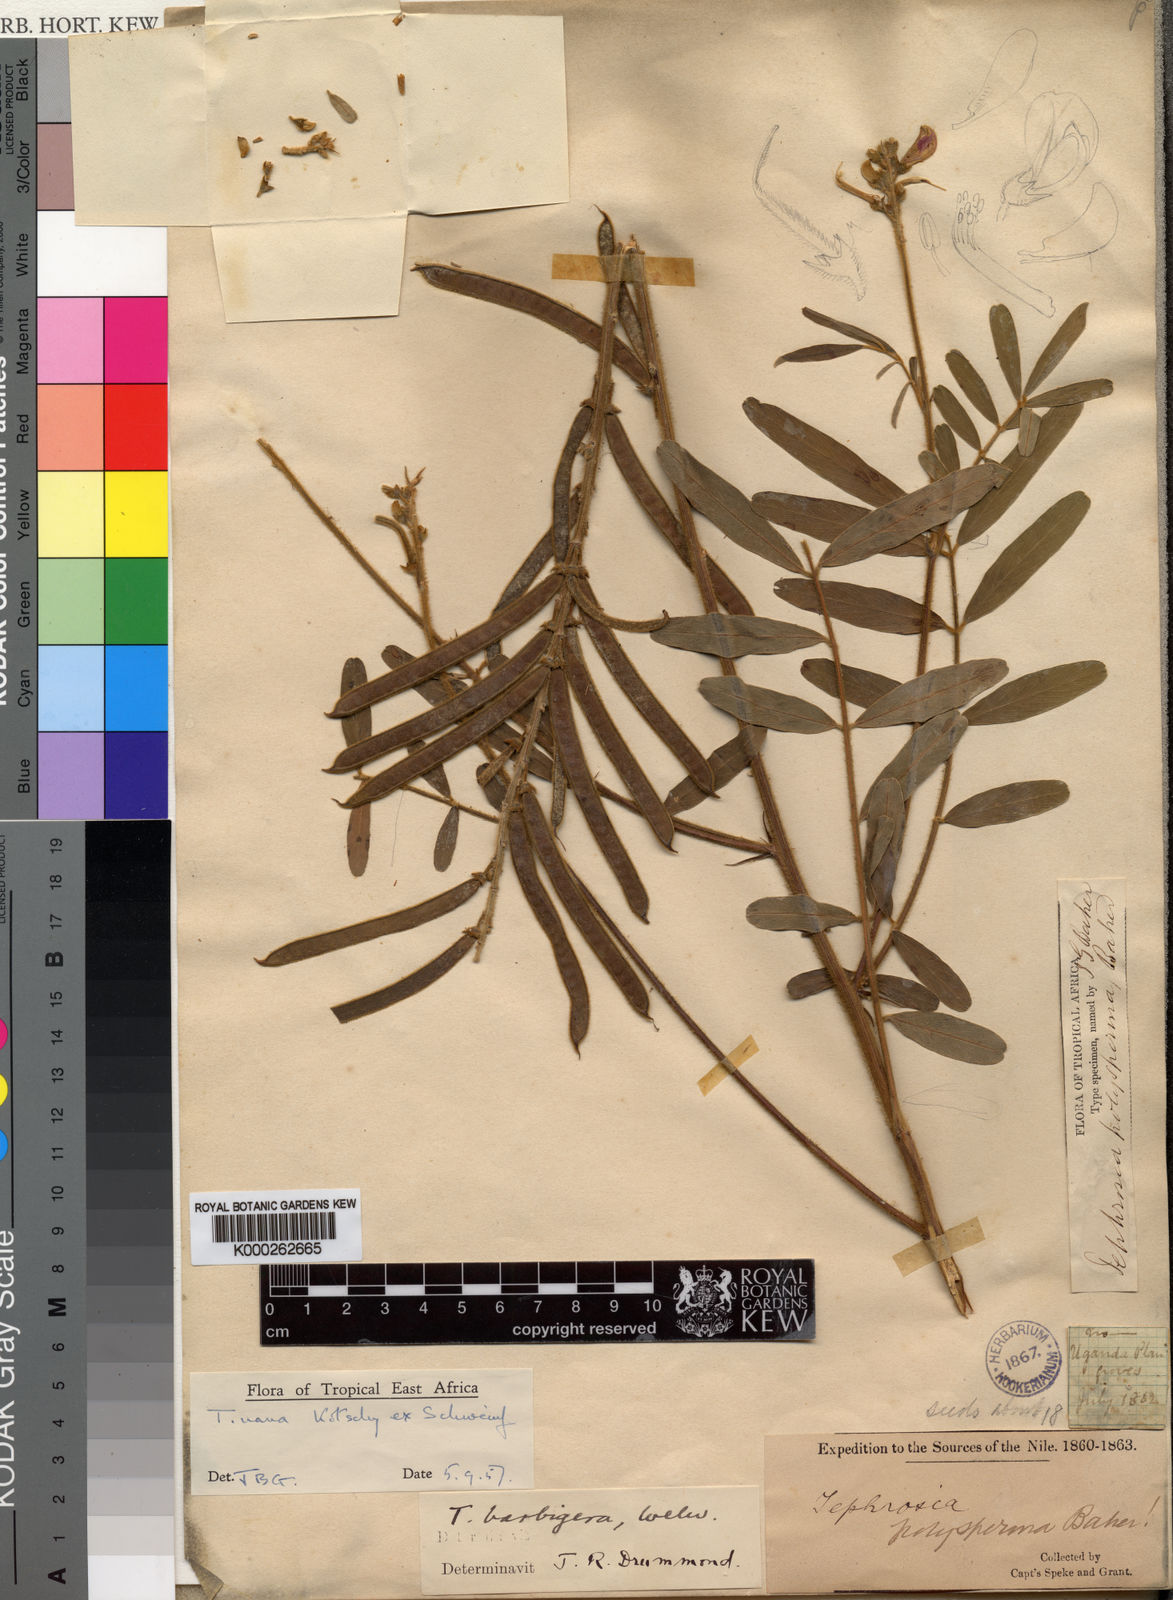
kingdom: Plantae
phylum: Tracheophyta
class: Magnoliopsida
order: Fabales
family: Fabaceae
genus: Tephrosia
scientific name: Tephrosia nana
